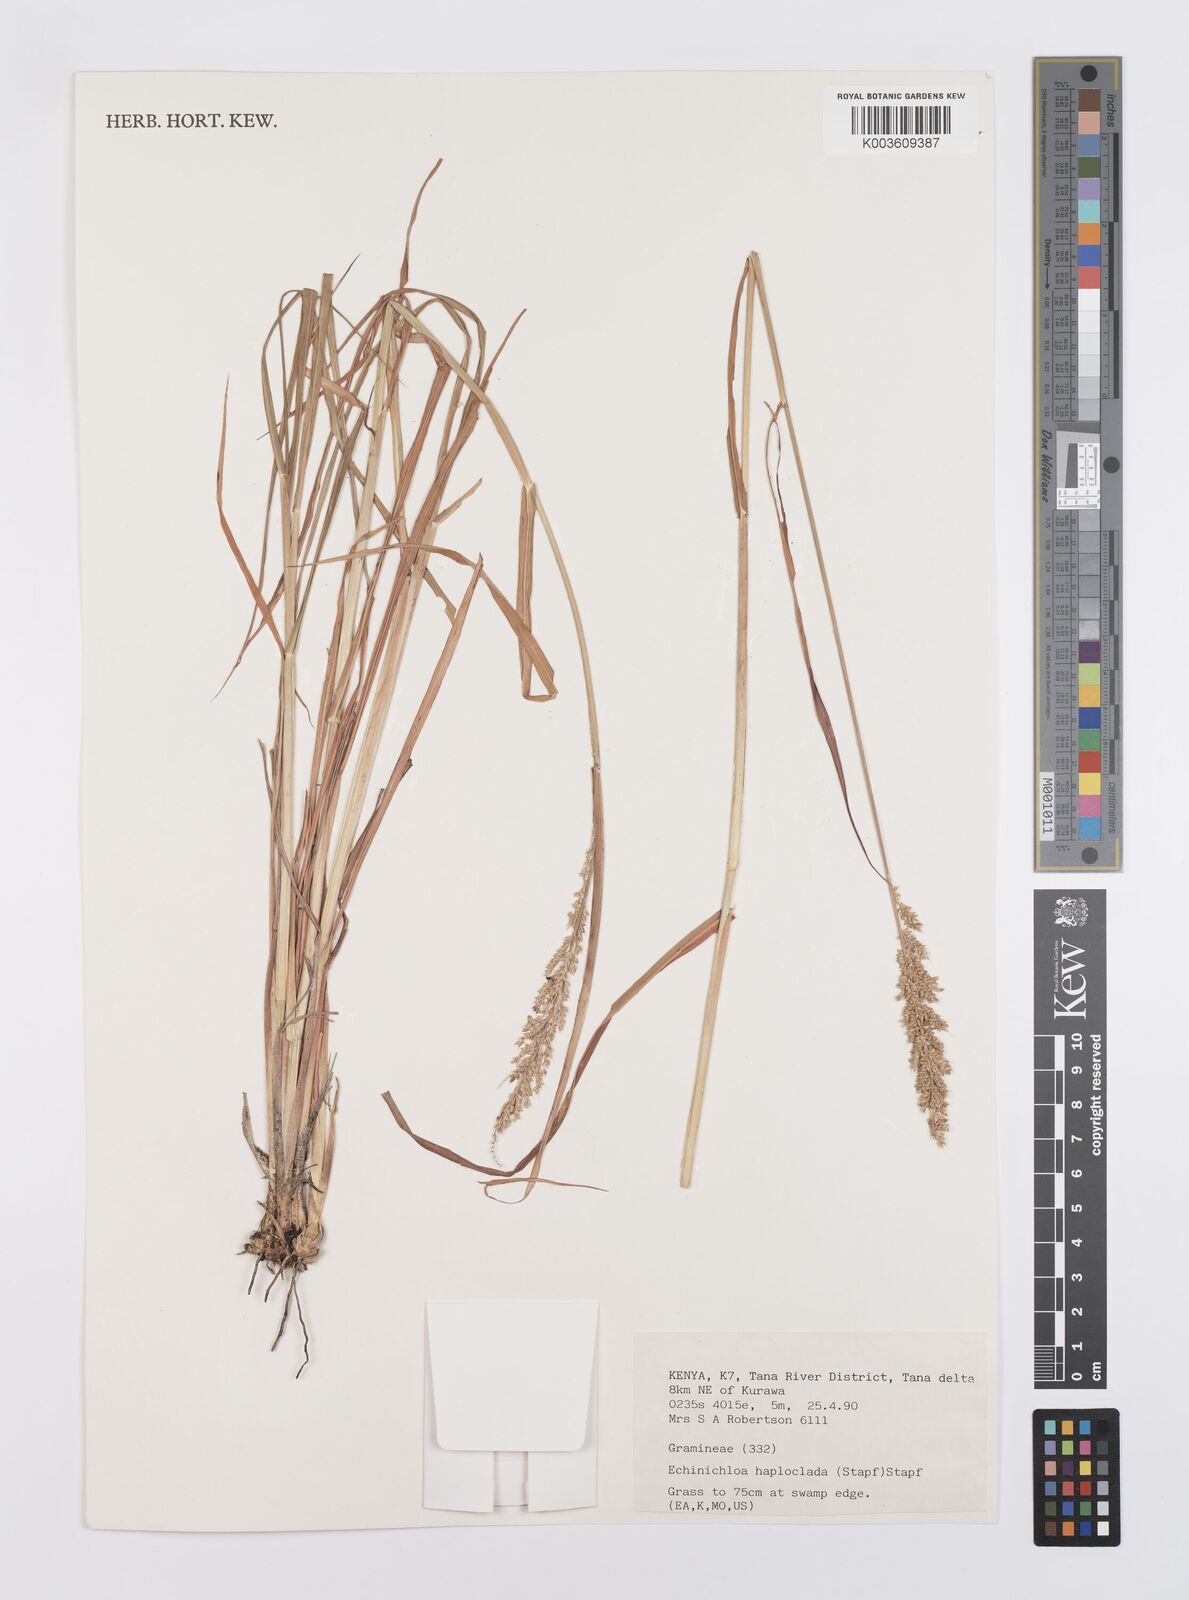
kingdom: Plantae
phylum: Tracheophyta
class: Liliopsida
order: Poales
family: Poaceae
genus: Echinochloa
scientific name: Echinochloa haploclada
